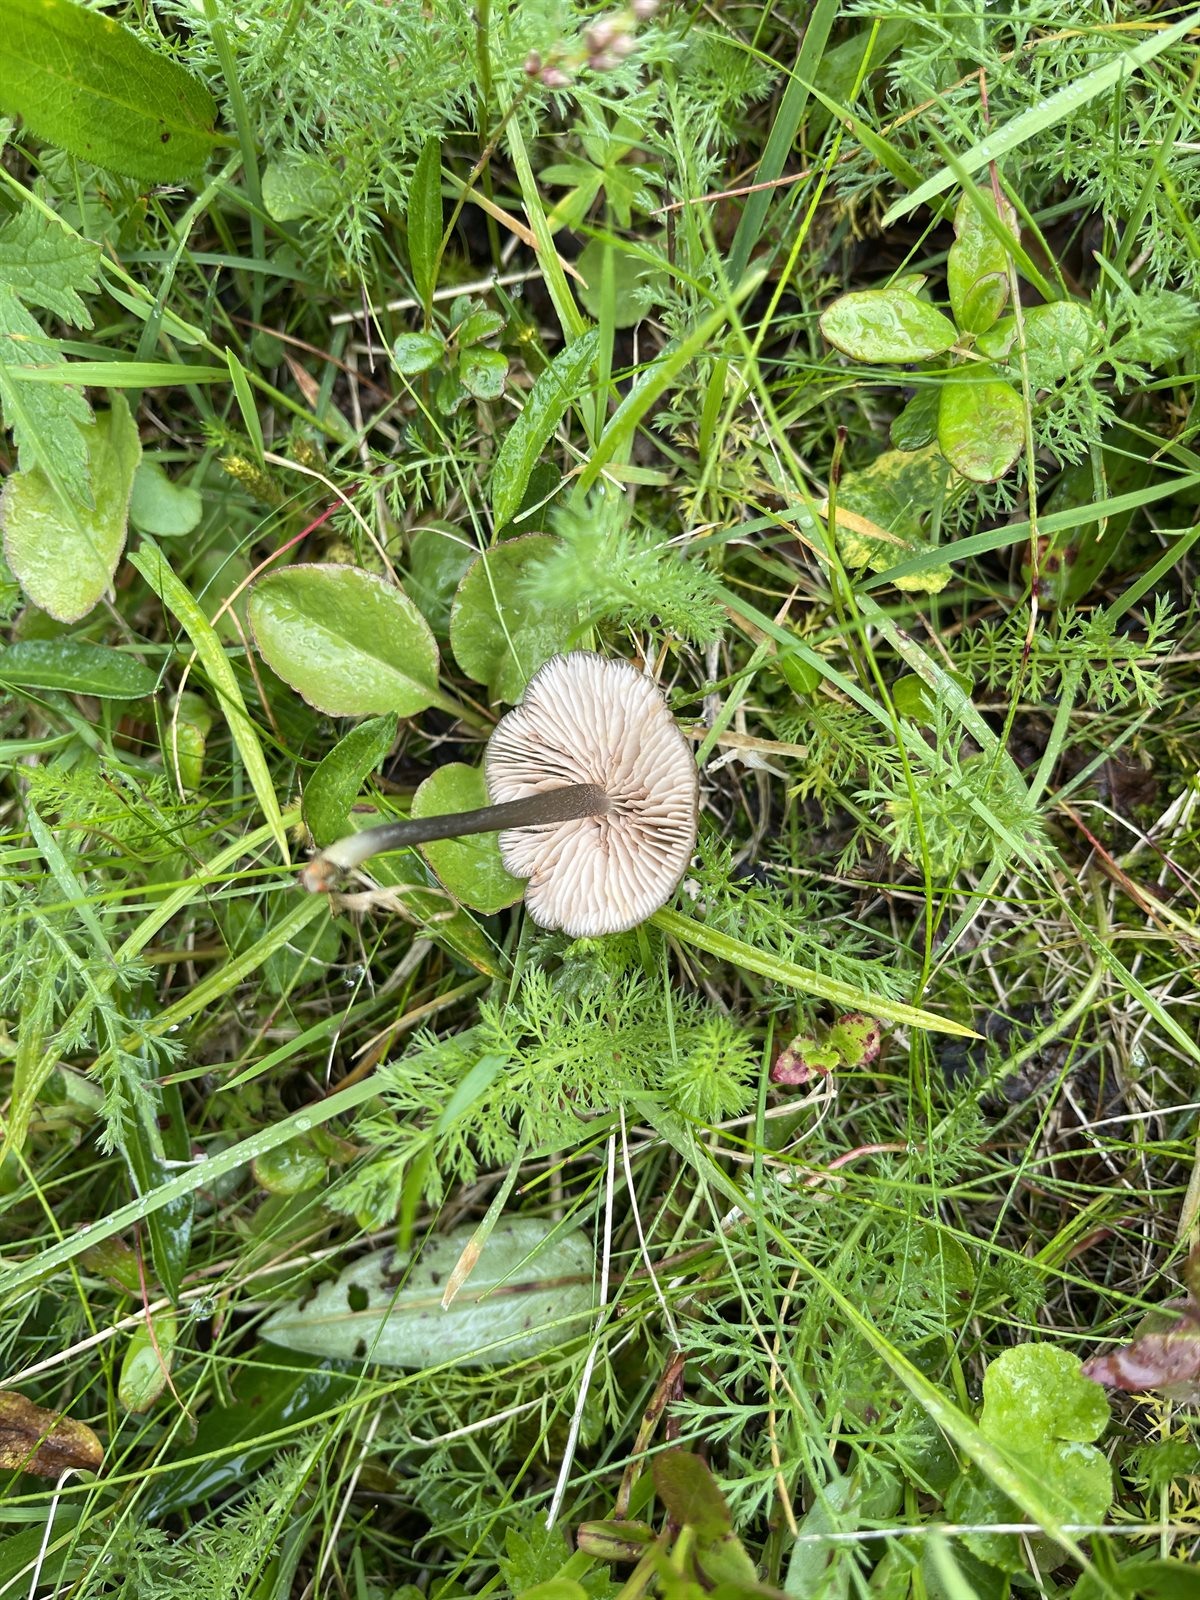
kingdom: Fungi
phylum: Basidiomycota
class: Agaricomycetes
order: Agaricales
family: Entolomataceae
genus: Entoloma
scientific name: Entoloma asprellum
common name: Roughened pinkgill
